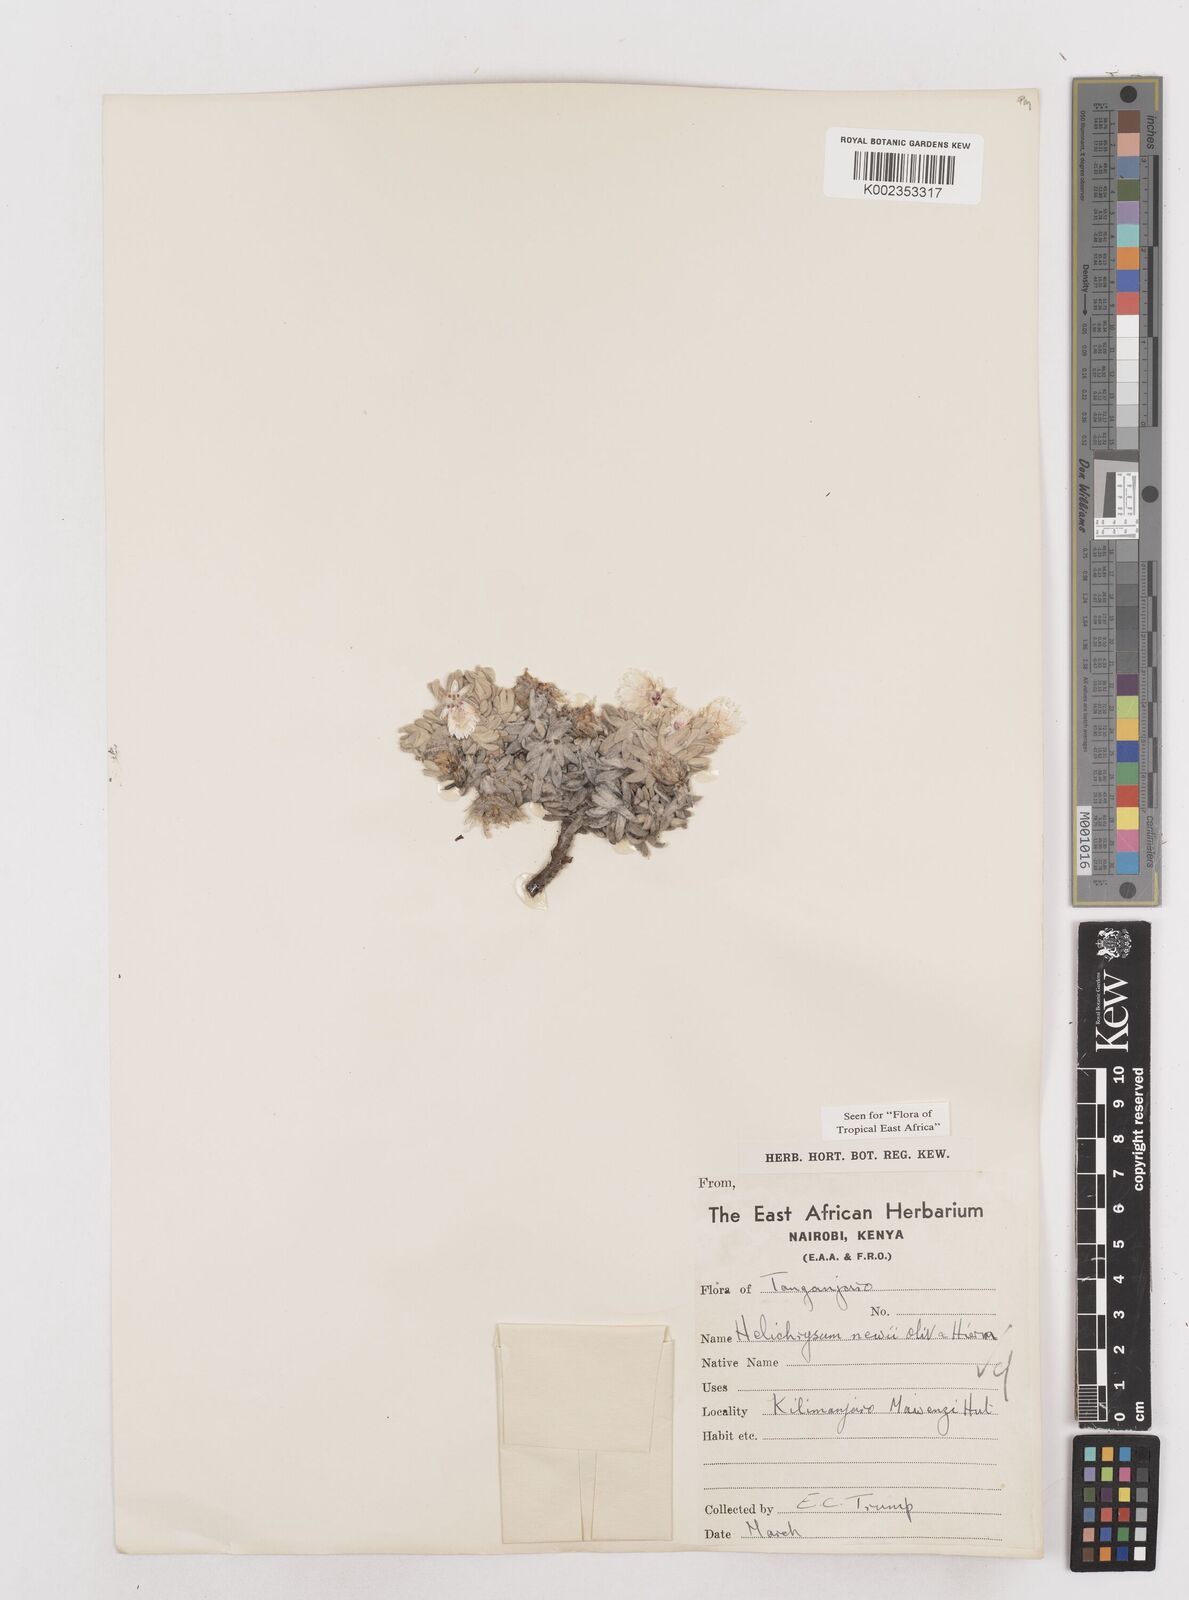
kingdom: Plantae
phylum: Tracheophyta
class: Magnoliopsida
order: Asterales
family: Asteraceae
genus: Helichrysum
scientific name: Helichrysum newii
